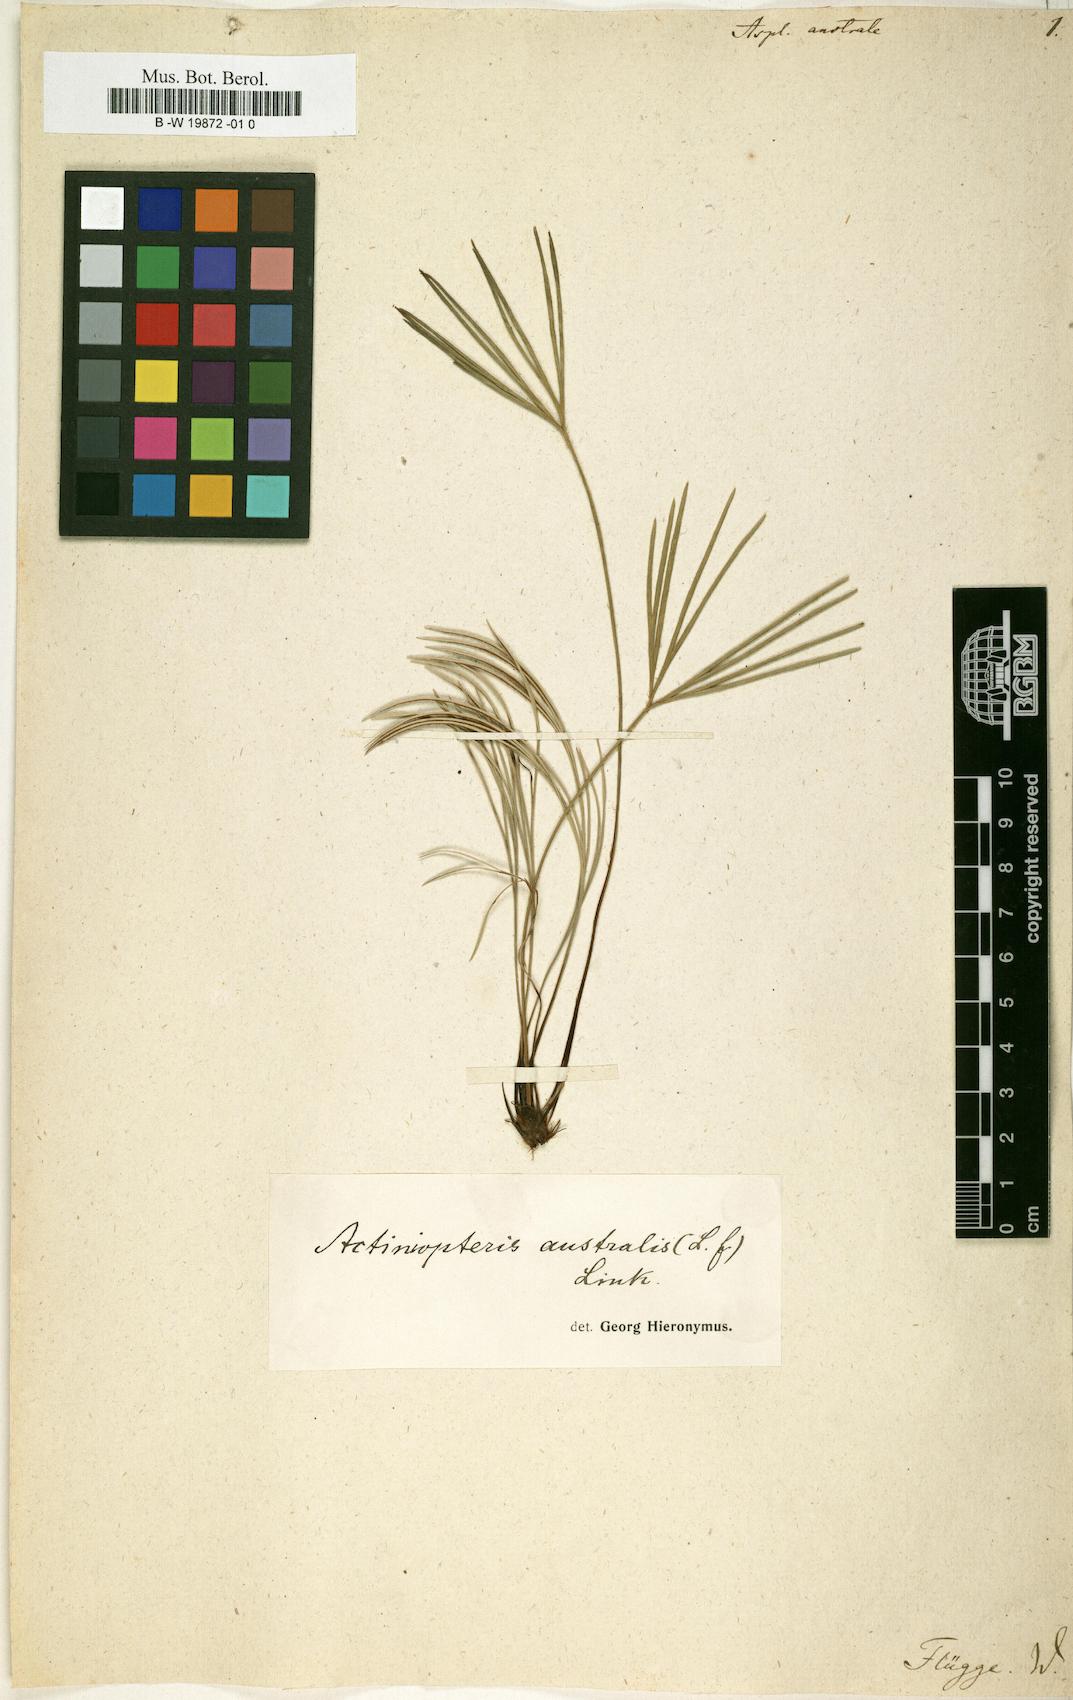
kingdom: Plantae
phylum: Tracheophyta
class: Polypodiopsida
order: Polypodiales
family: Aspleniaceae
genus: Asplenium
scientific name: Asplenium australe
